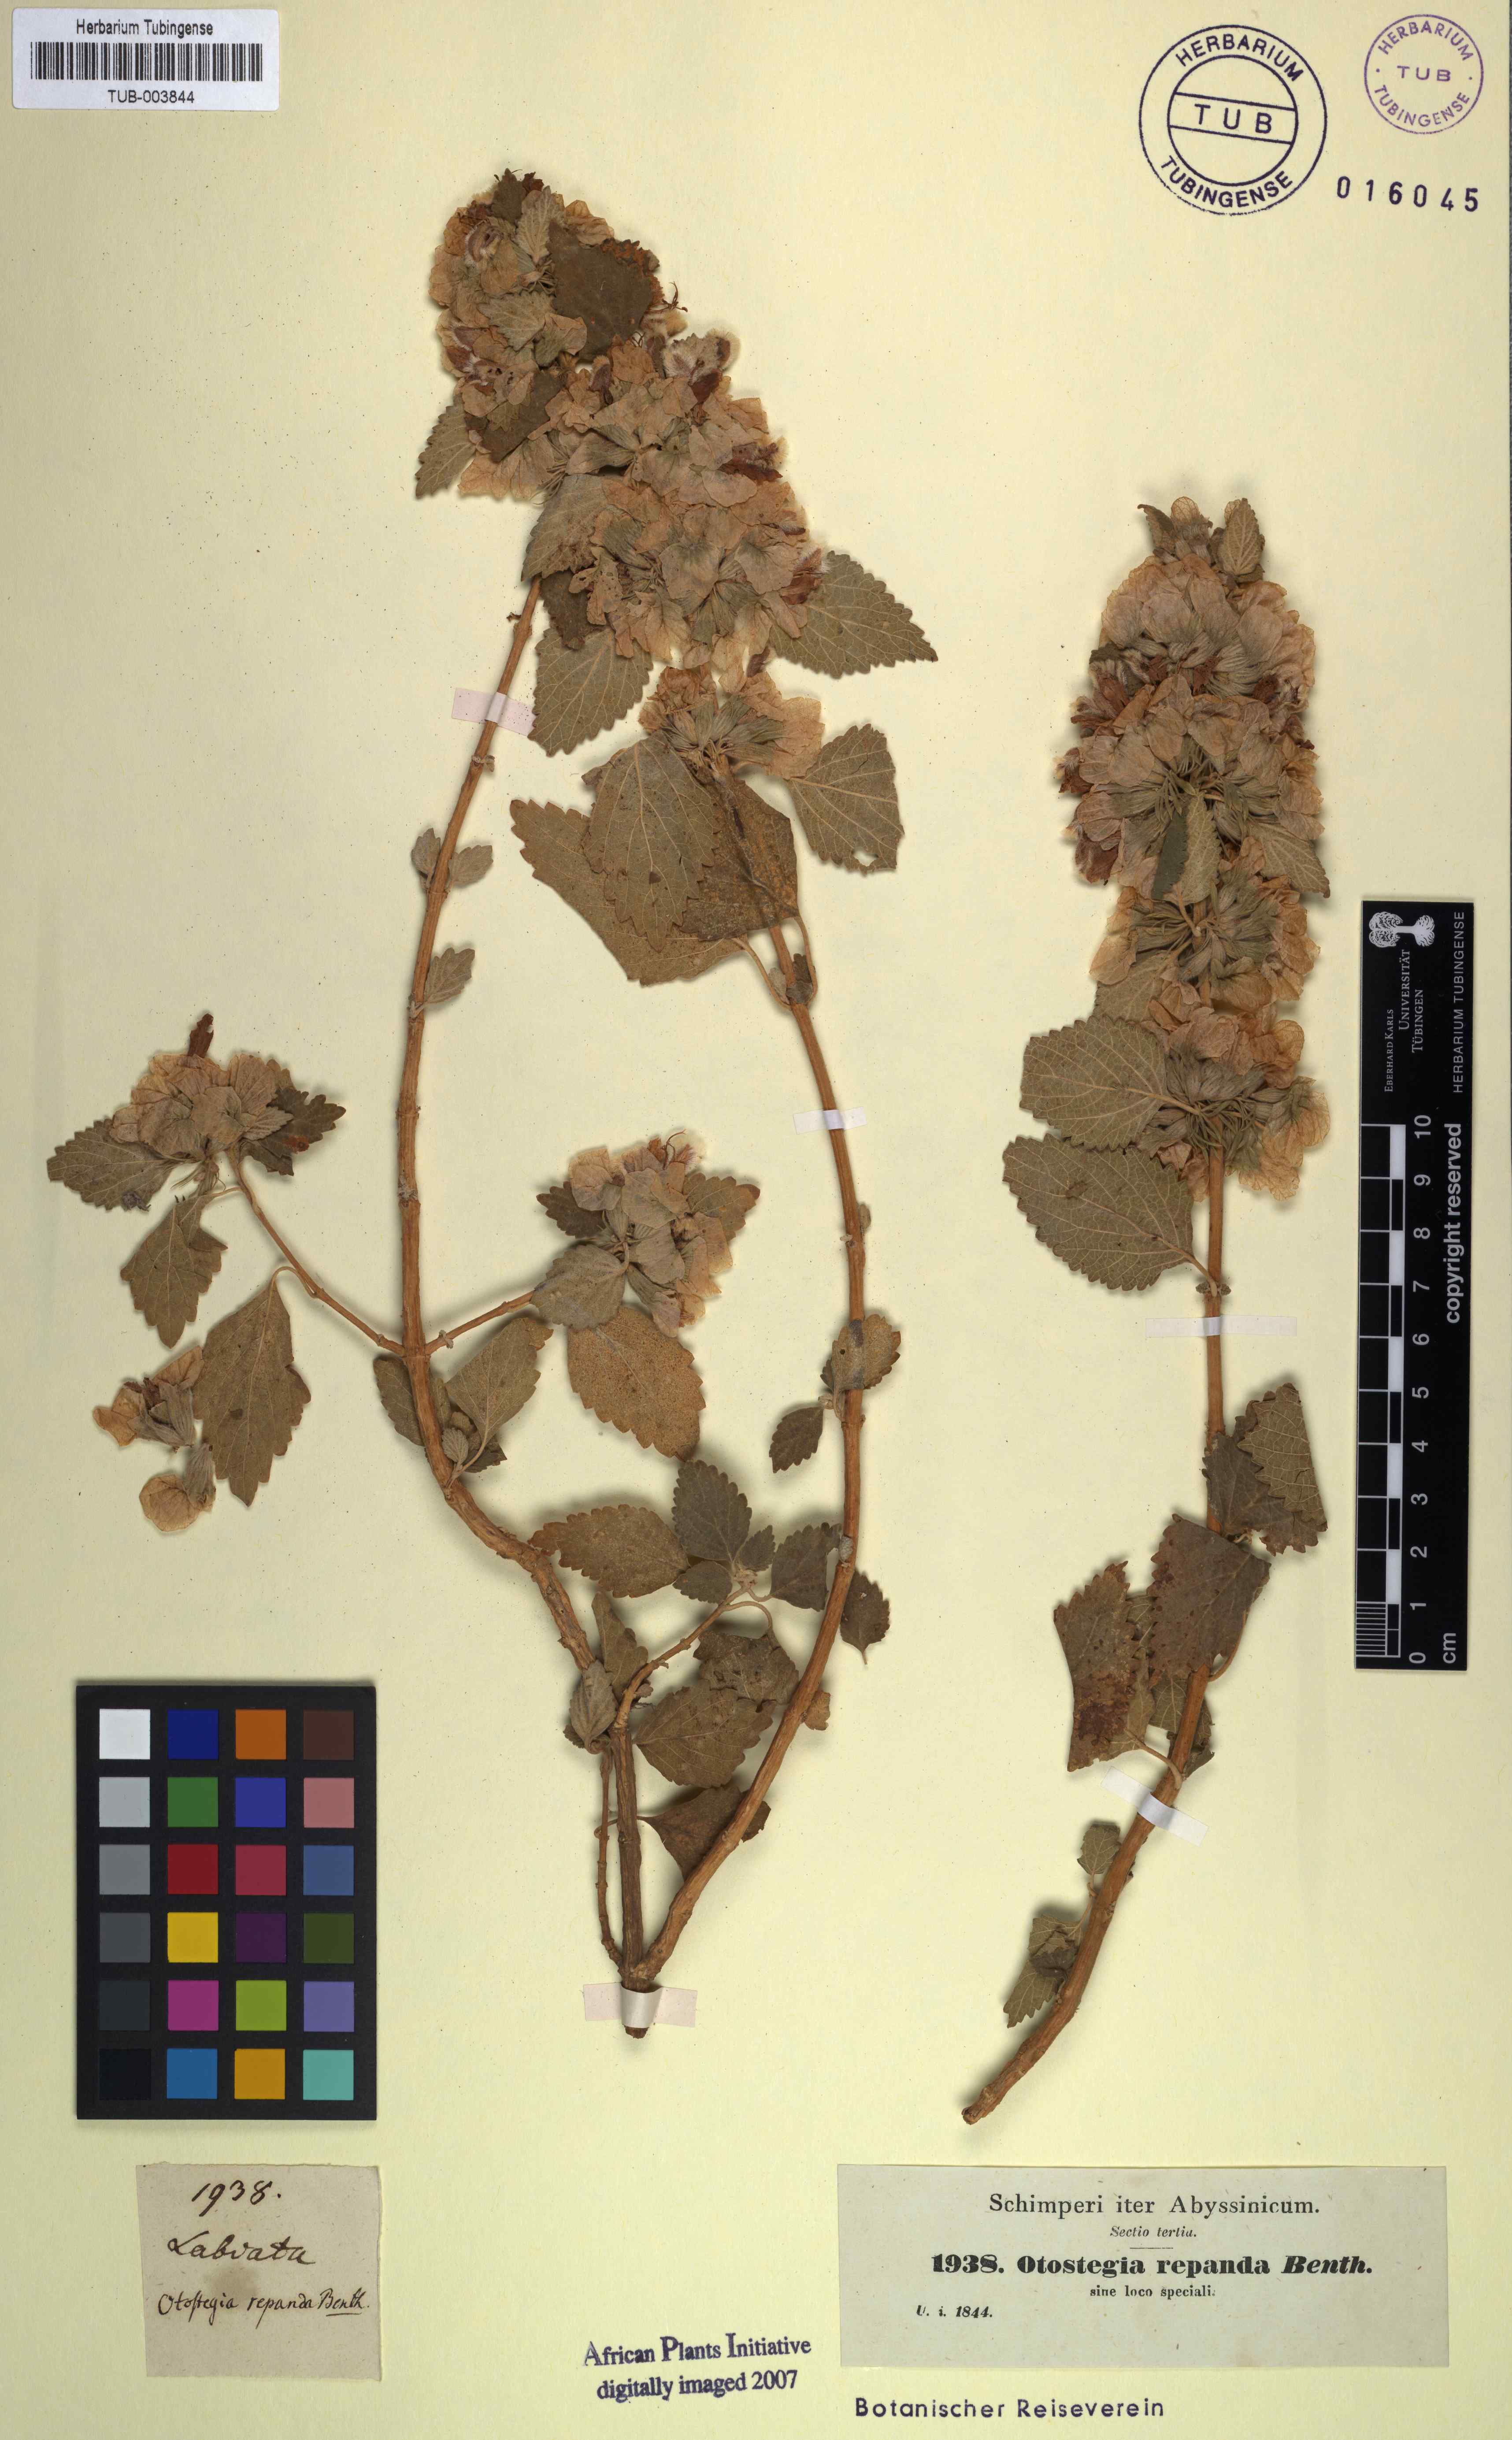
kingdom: Plantae
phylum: Tracheophyta
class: Magnoliopsida
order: Lamiales
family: Lamiaceae
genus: Otostegia
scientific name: Otostegia fruticosa
